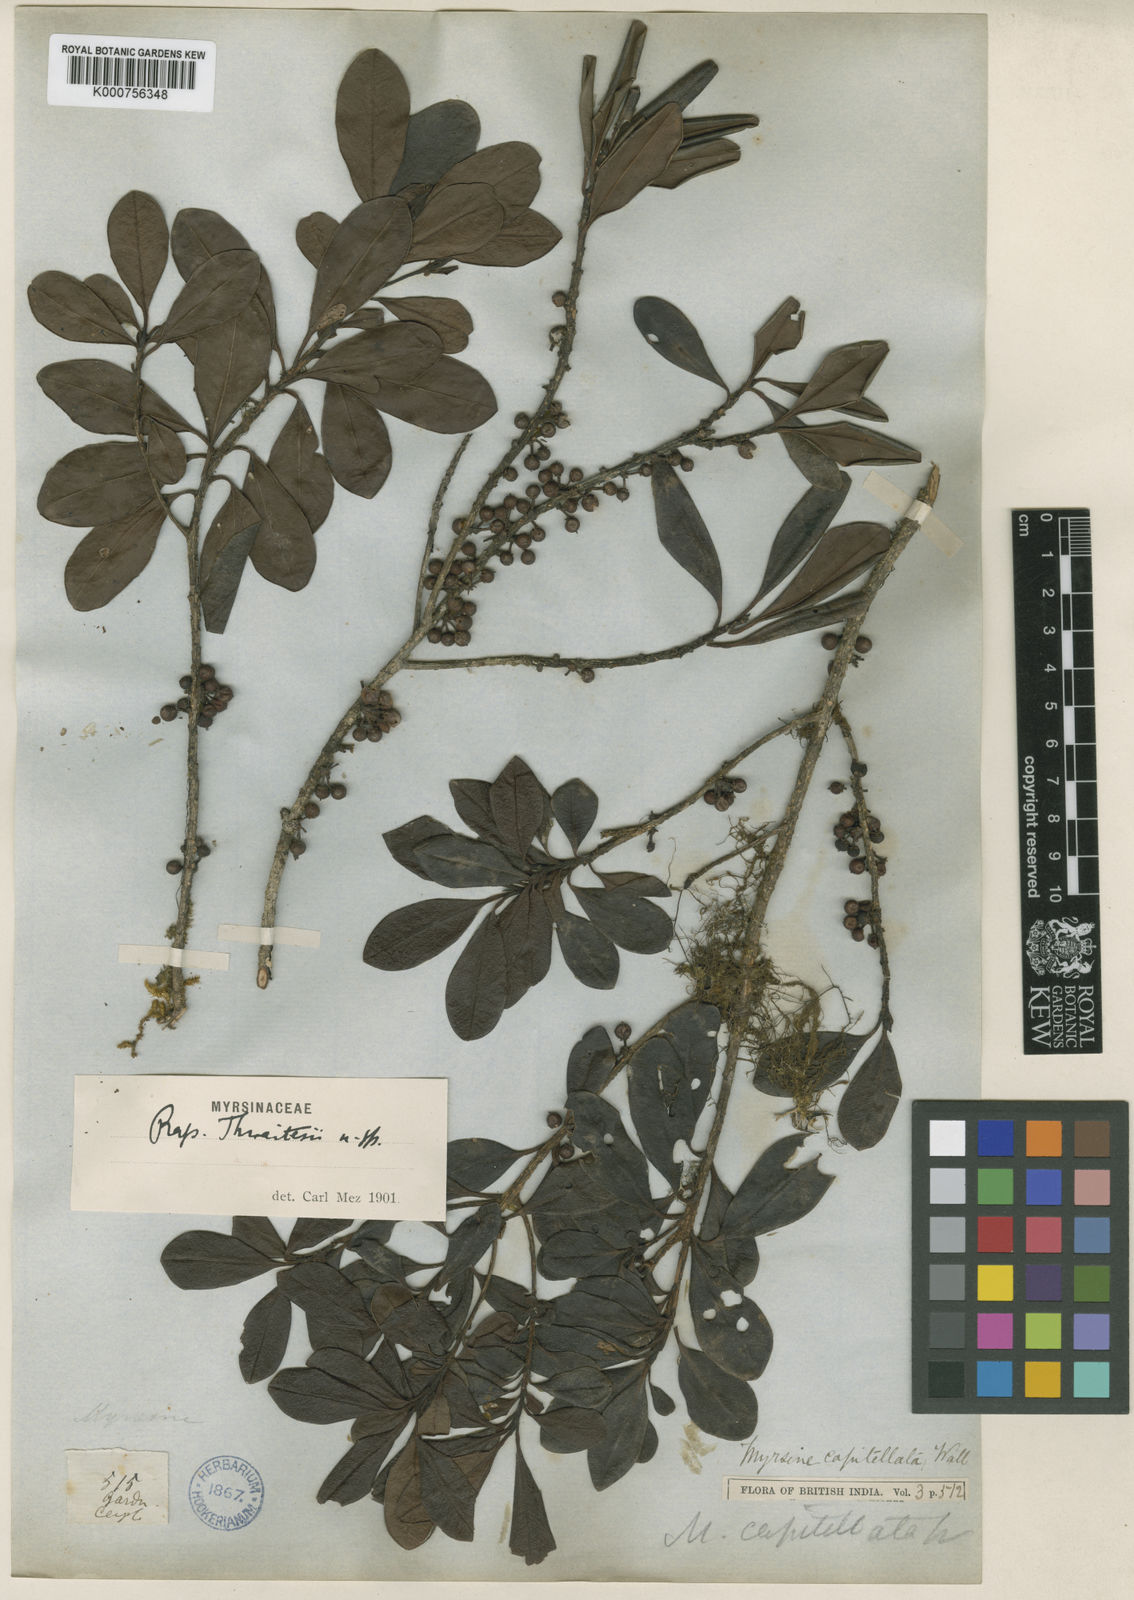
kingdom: Plantae
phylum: Tracheophyta
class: Magnoliopsida
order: Ericales
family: Primulaceae
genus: Myrsine
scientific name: Myrsine thwaitesii
